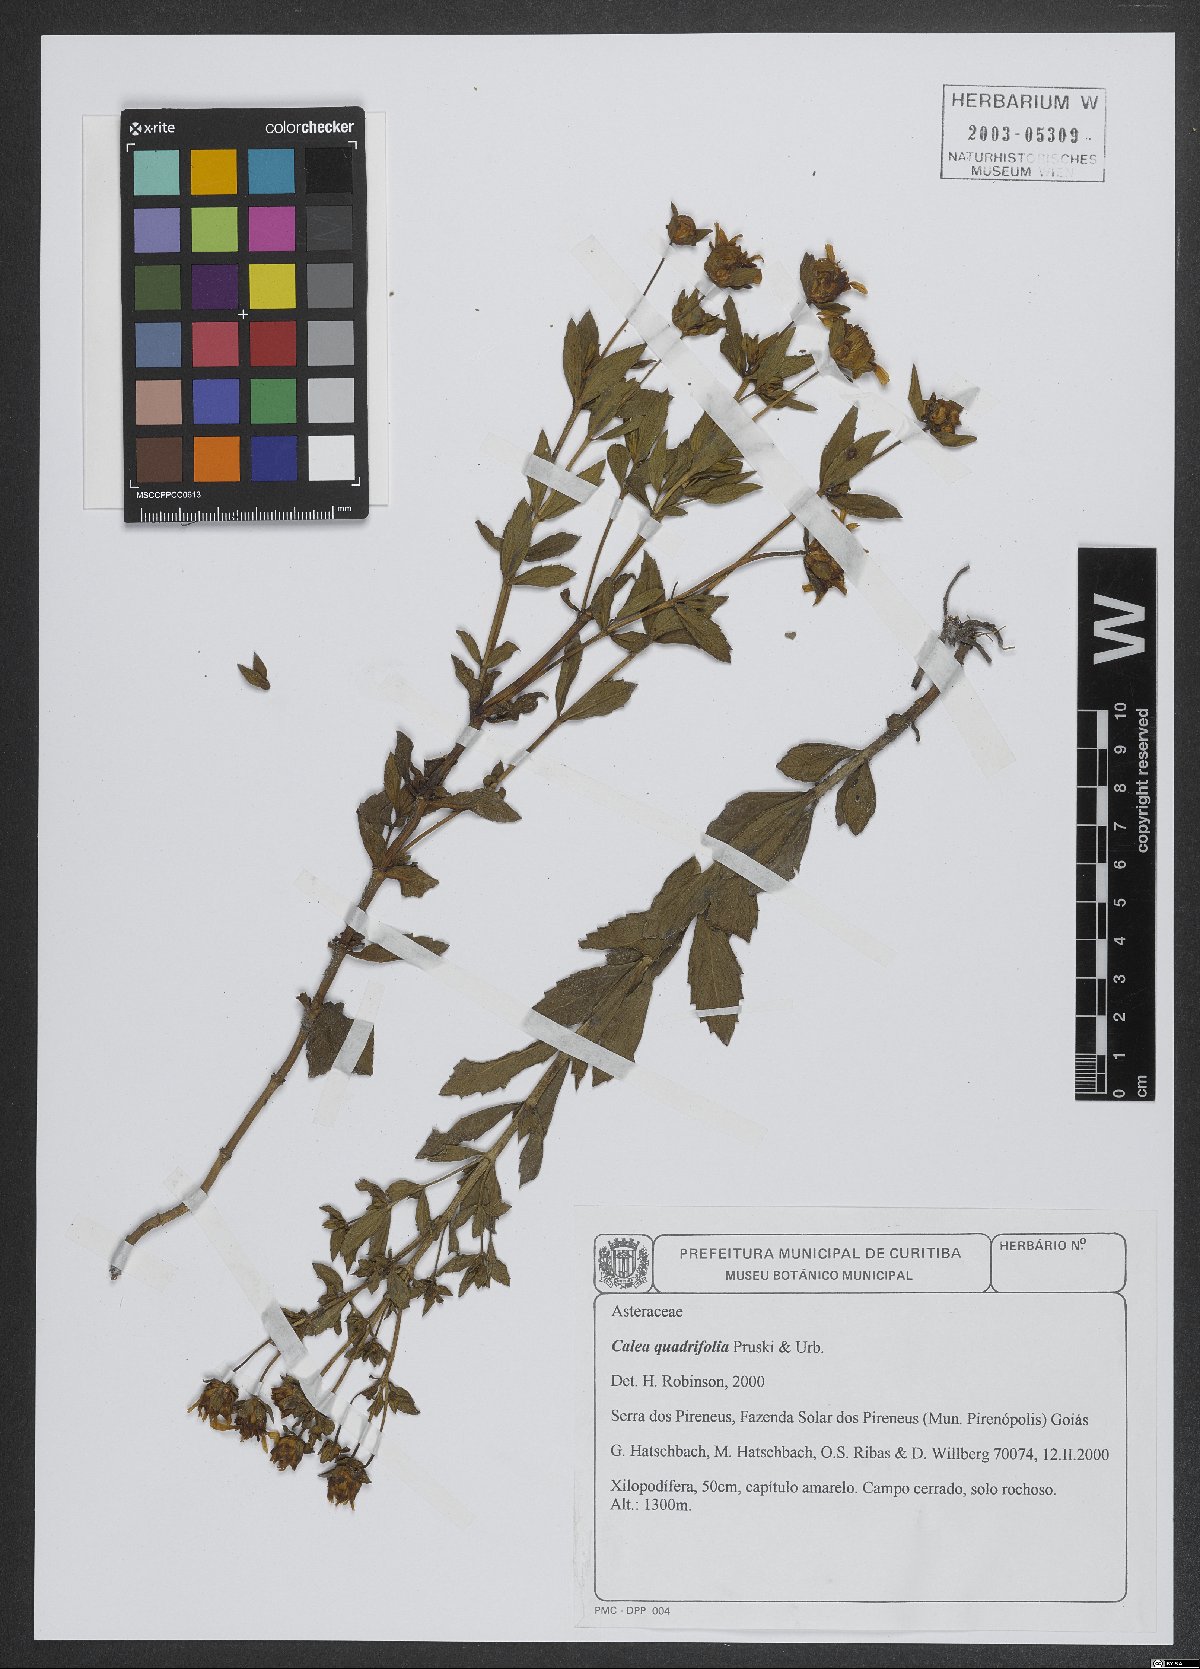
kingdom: Plantae
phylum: Tracheophyta
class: Magnoliopsida
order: Asterales
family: Asteraceae
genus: Calea
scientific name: Calea quadrifolia
